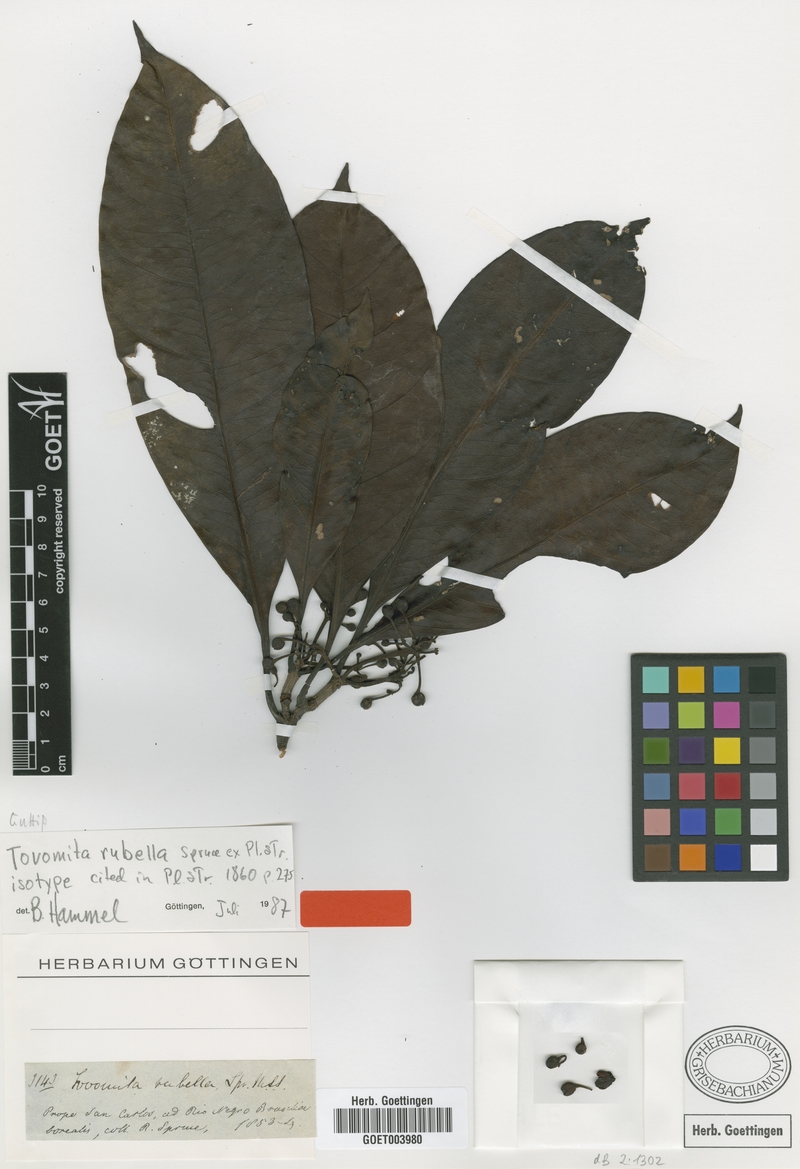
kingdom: Plantae
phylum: Tracheophyta
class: Magnoliopsida
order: Malpighiales
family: Clusiaceae
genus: Tovomita
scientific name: Tovomita rubella
